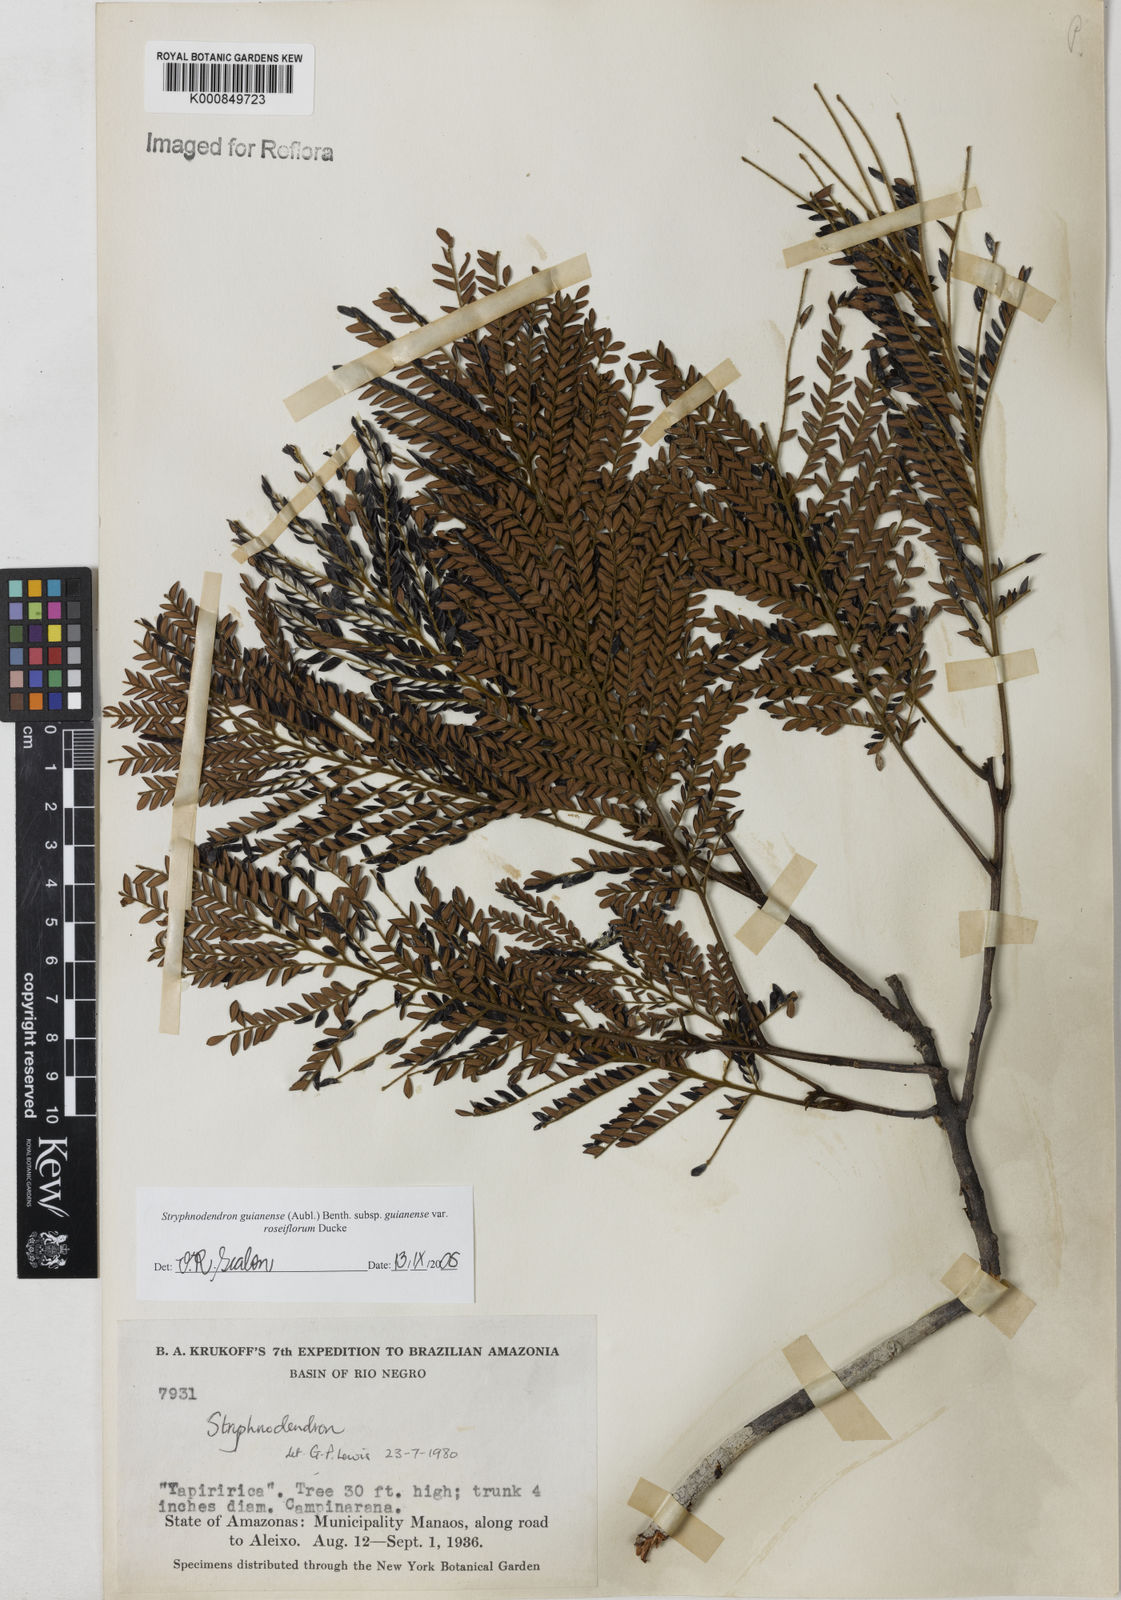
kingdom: Plantae
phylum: Tracheophyta
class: Magnoliopsida
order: Fabales
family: Fabaceae
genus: Stryphnodendron
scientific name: Stryphnodendron guianense
